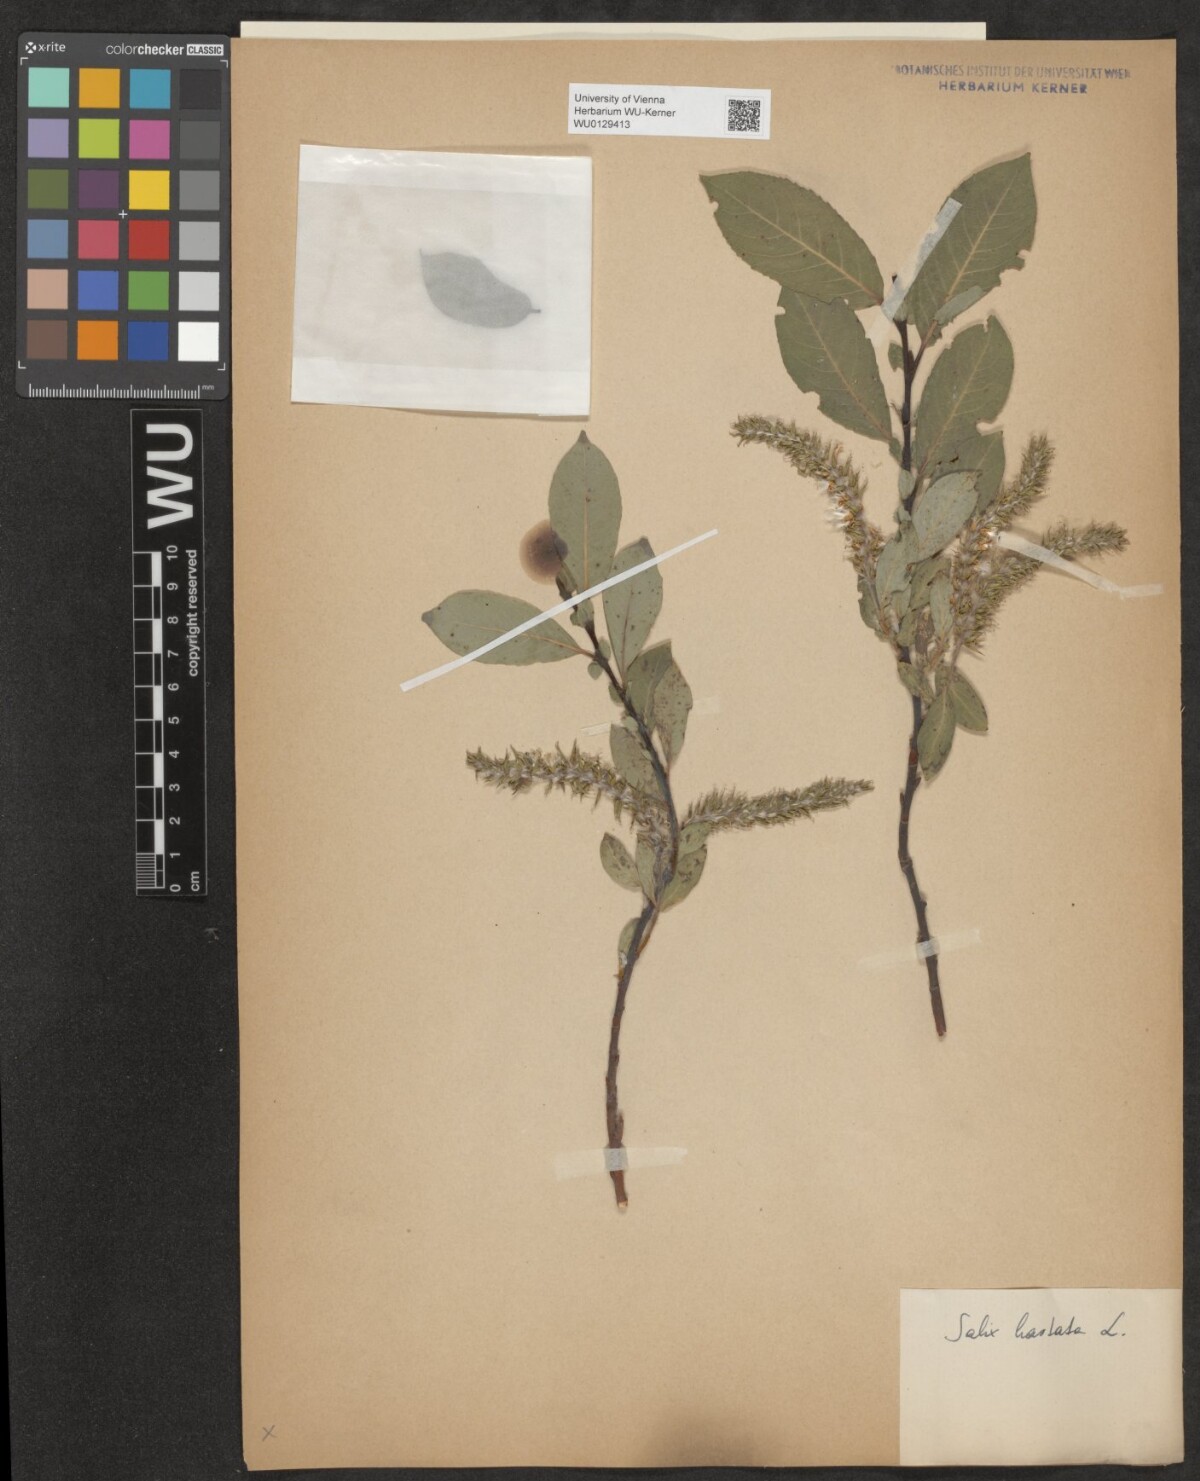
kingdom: Plantae
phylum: Tracheophyta
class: Magnoliopsida
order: Malpighiales
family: Salicaceae
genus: Salix
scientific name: Salix hastata
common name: Halberd willow
